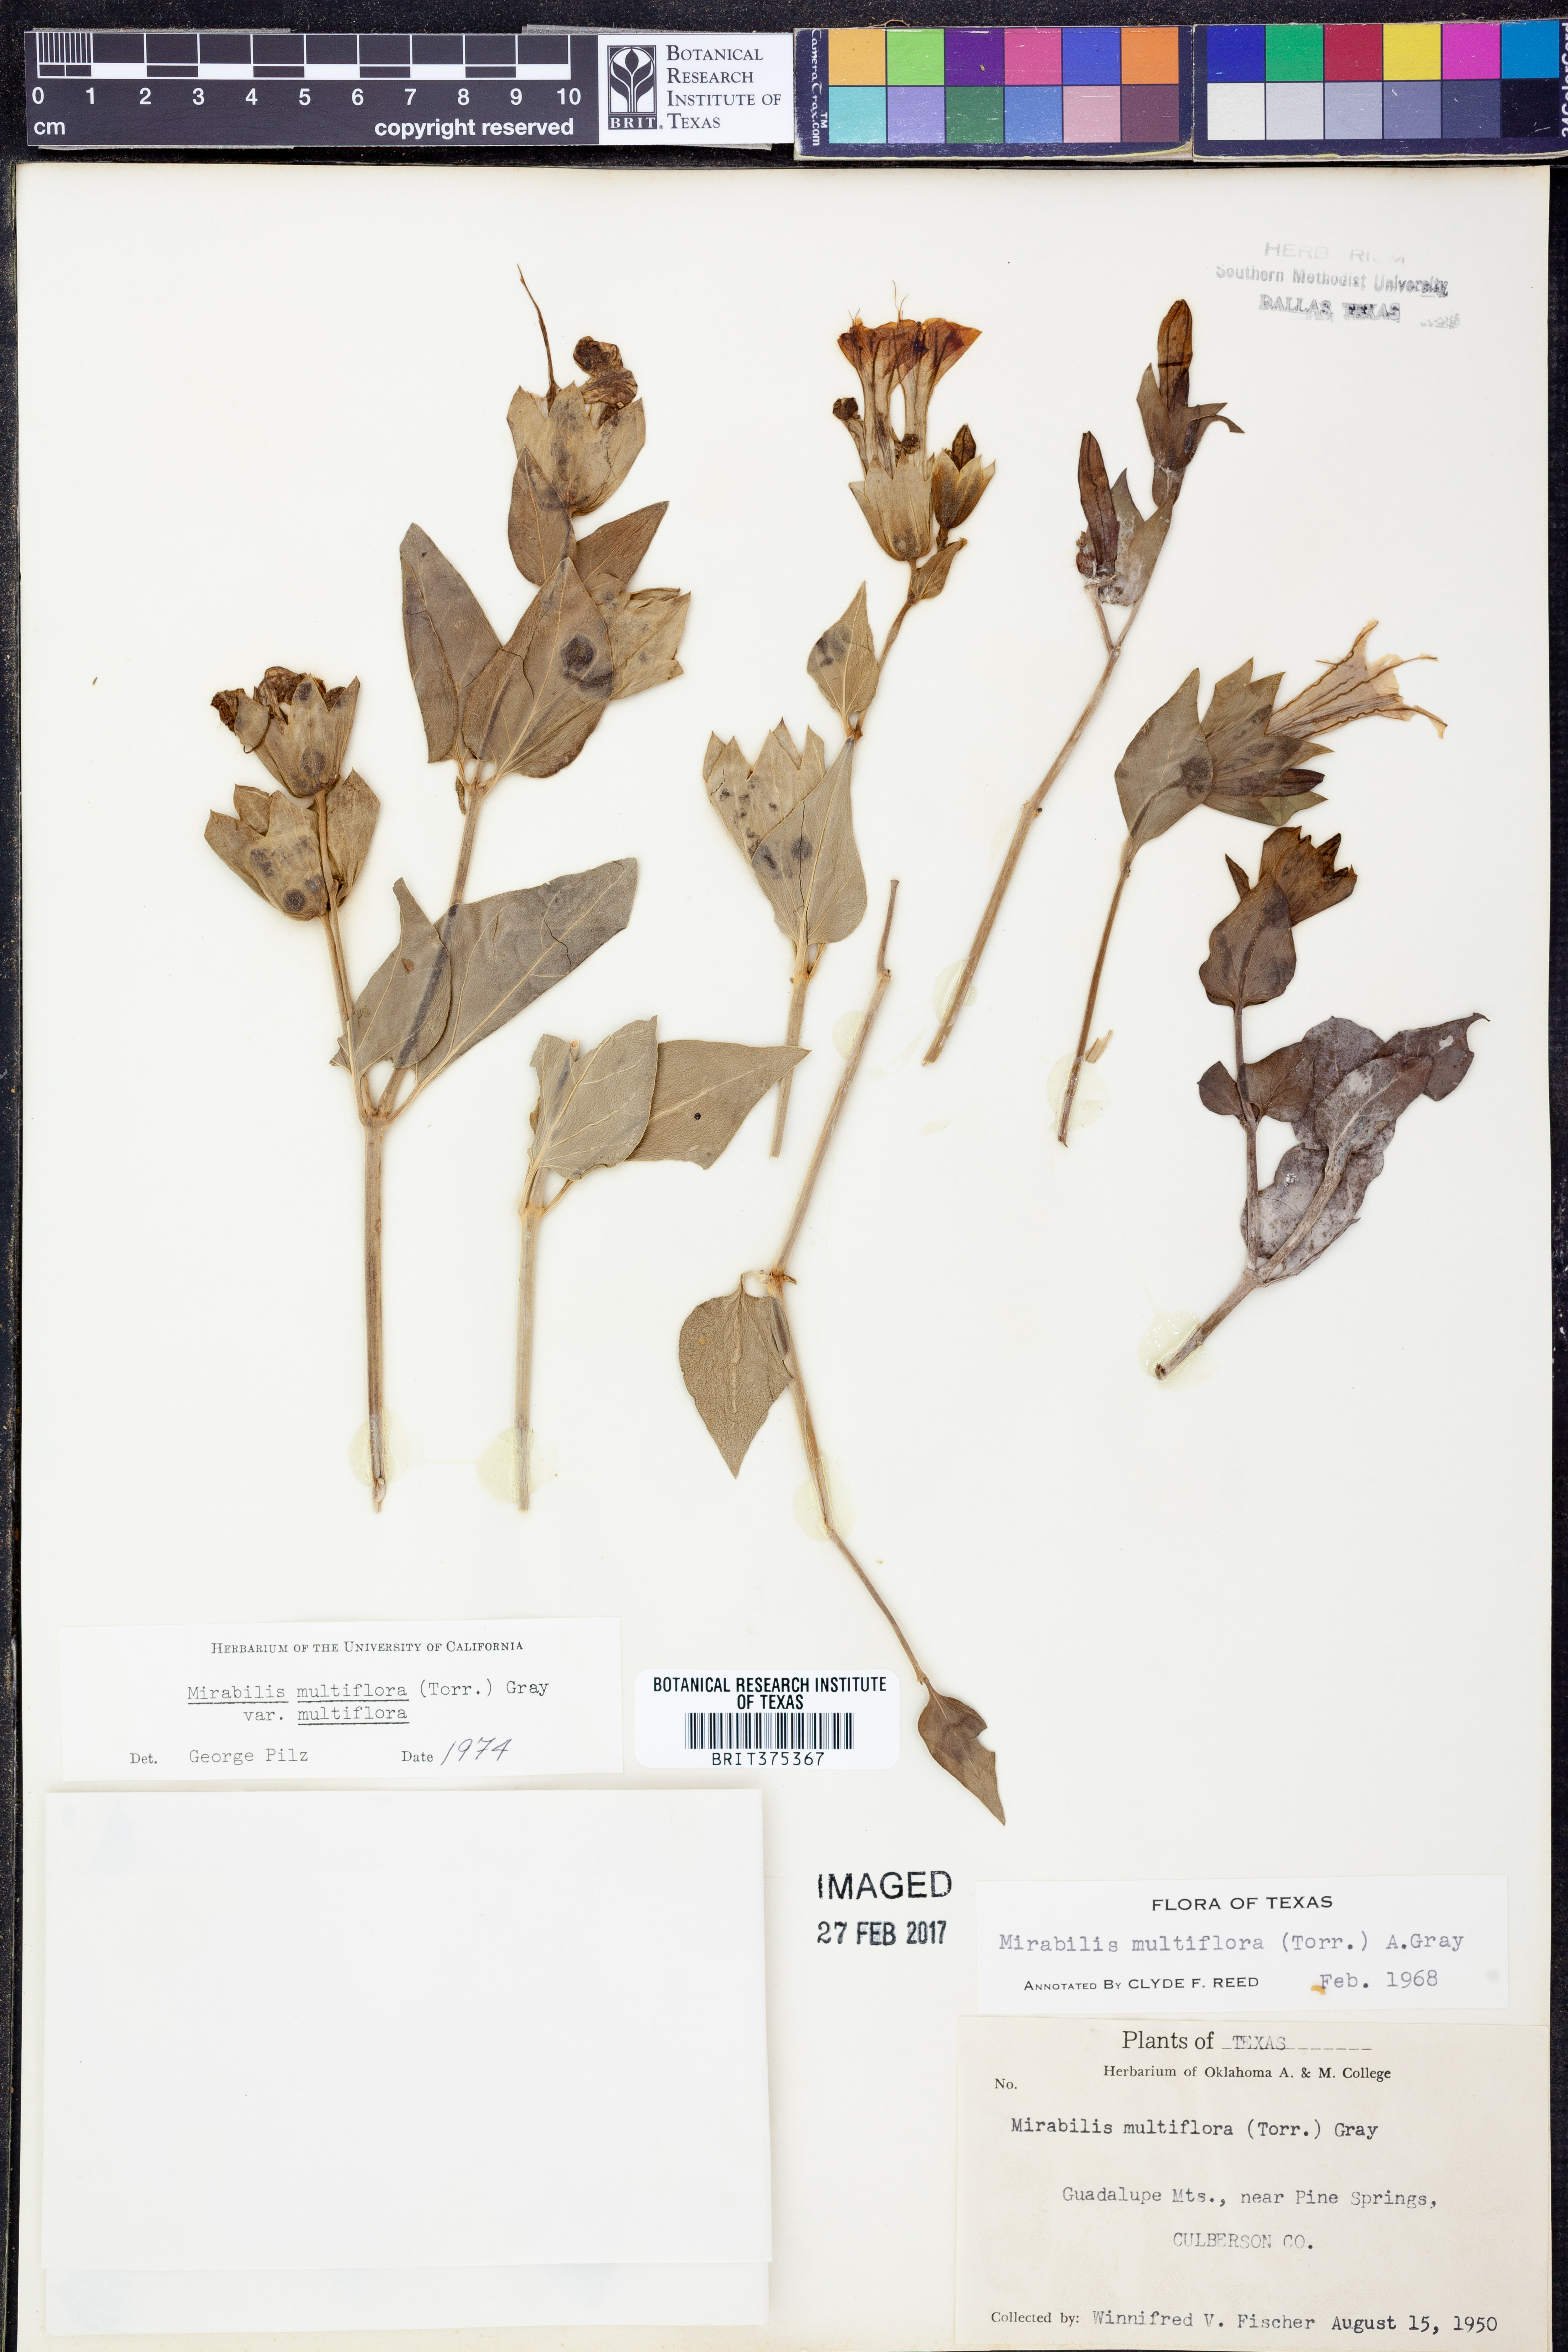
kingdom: Plantae
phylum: Tracheophyta
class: Magnoliopsida
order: Caryophyllales
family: Nyctaginaceae
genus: Mirabilis
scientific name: Mirabilis multiflora
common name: Froebel's four-o'clock
